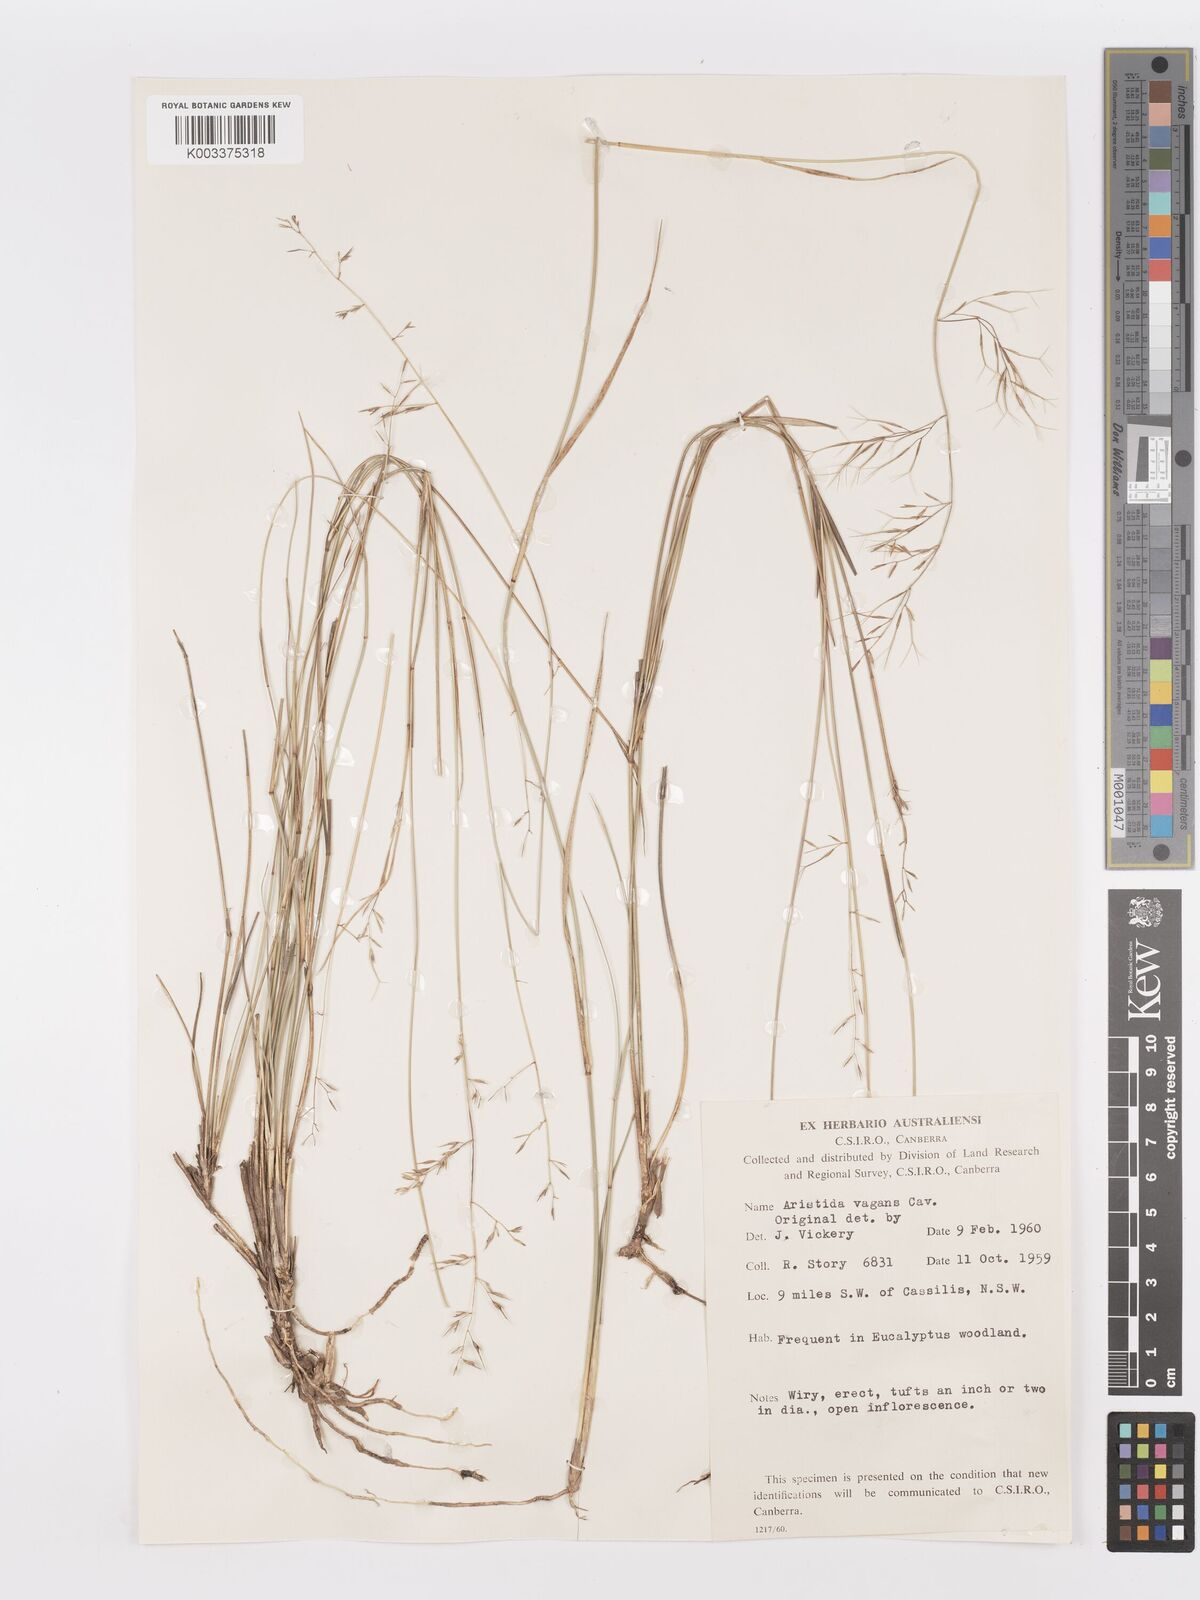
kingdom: Plantae
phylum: Tracheophyta
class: Liliopsida
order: Poales
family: Poaceae
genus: Aristida
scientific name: Aristida vagans
